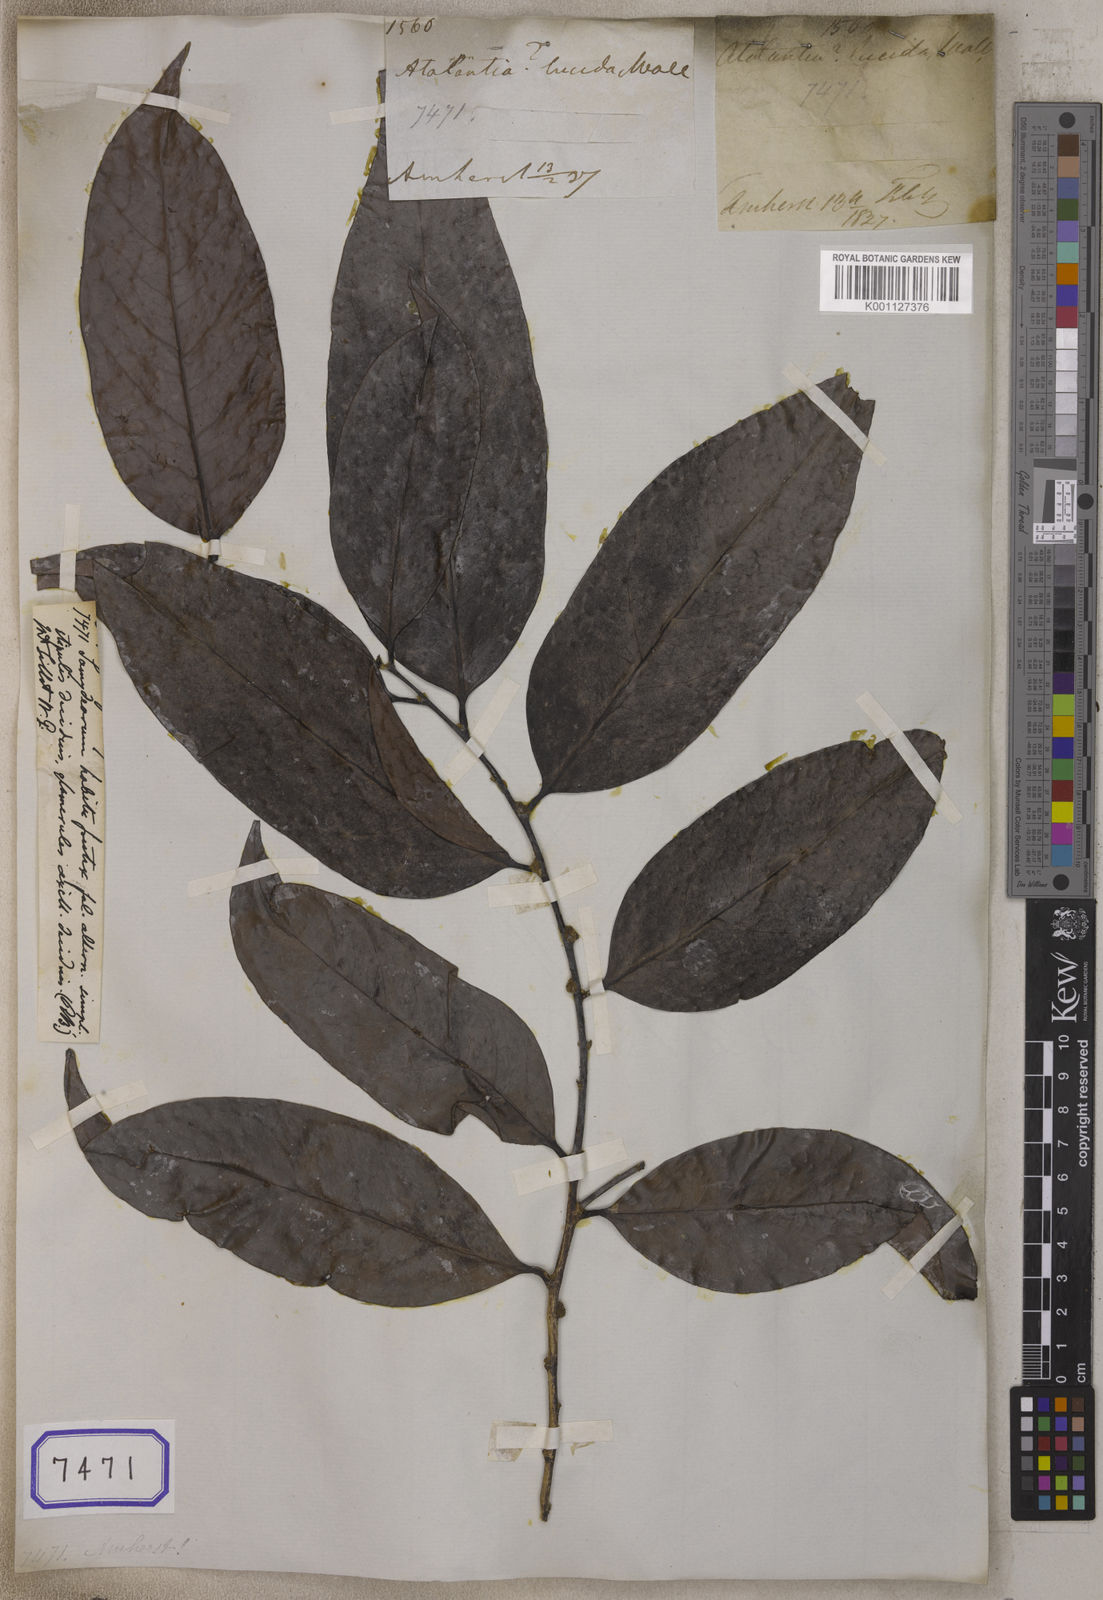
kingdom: Plantae
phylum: Tracheophyta
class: Magnoliopsida
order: Sapindales
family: Meliaceae
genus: Guarea
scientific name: Guarea
